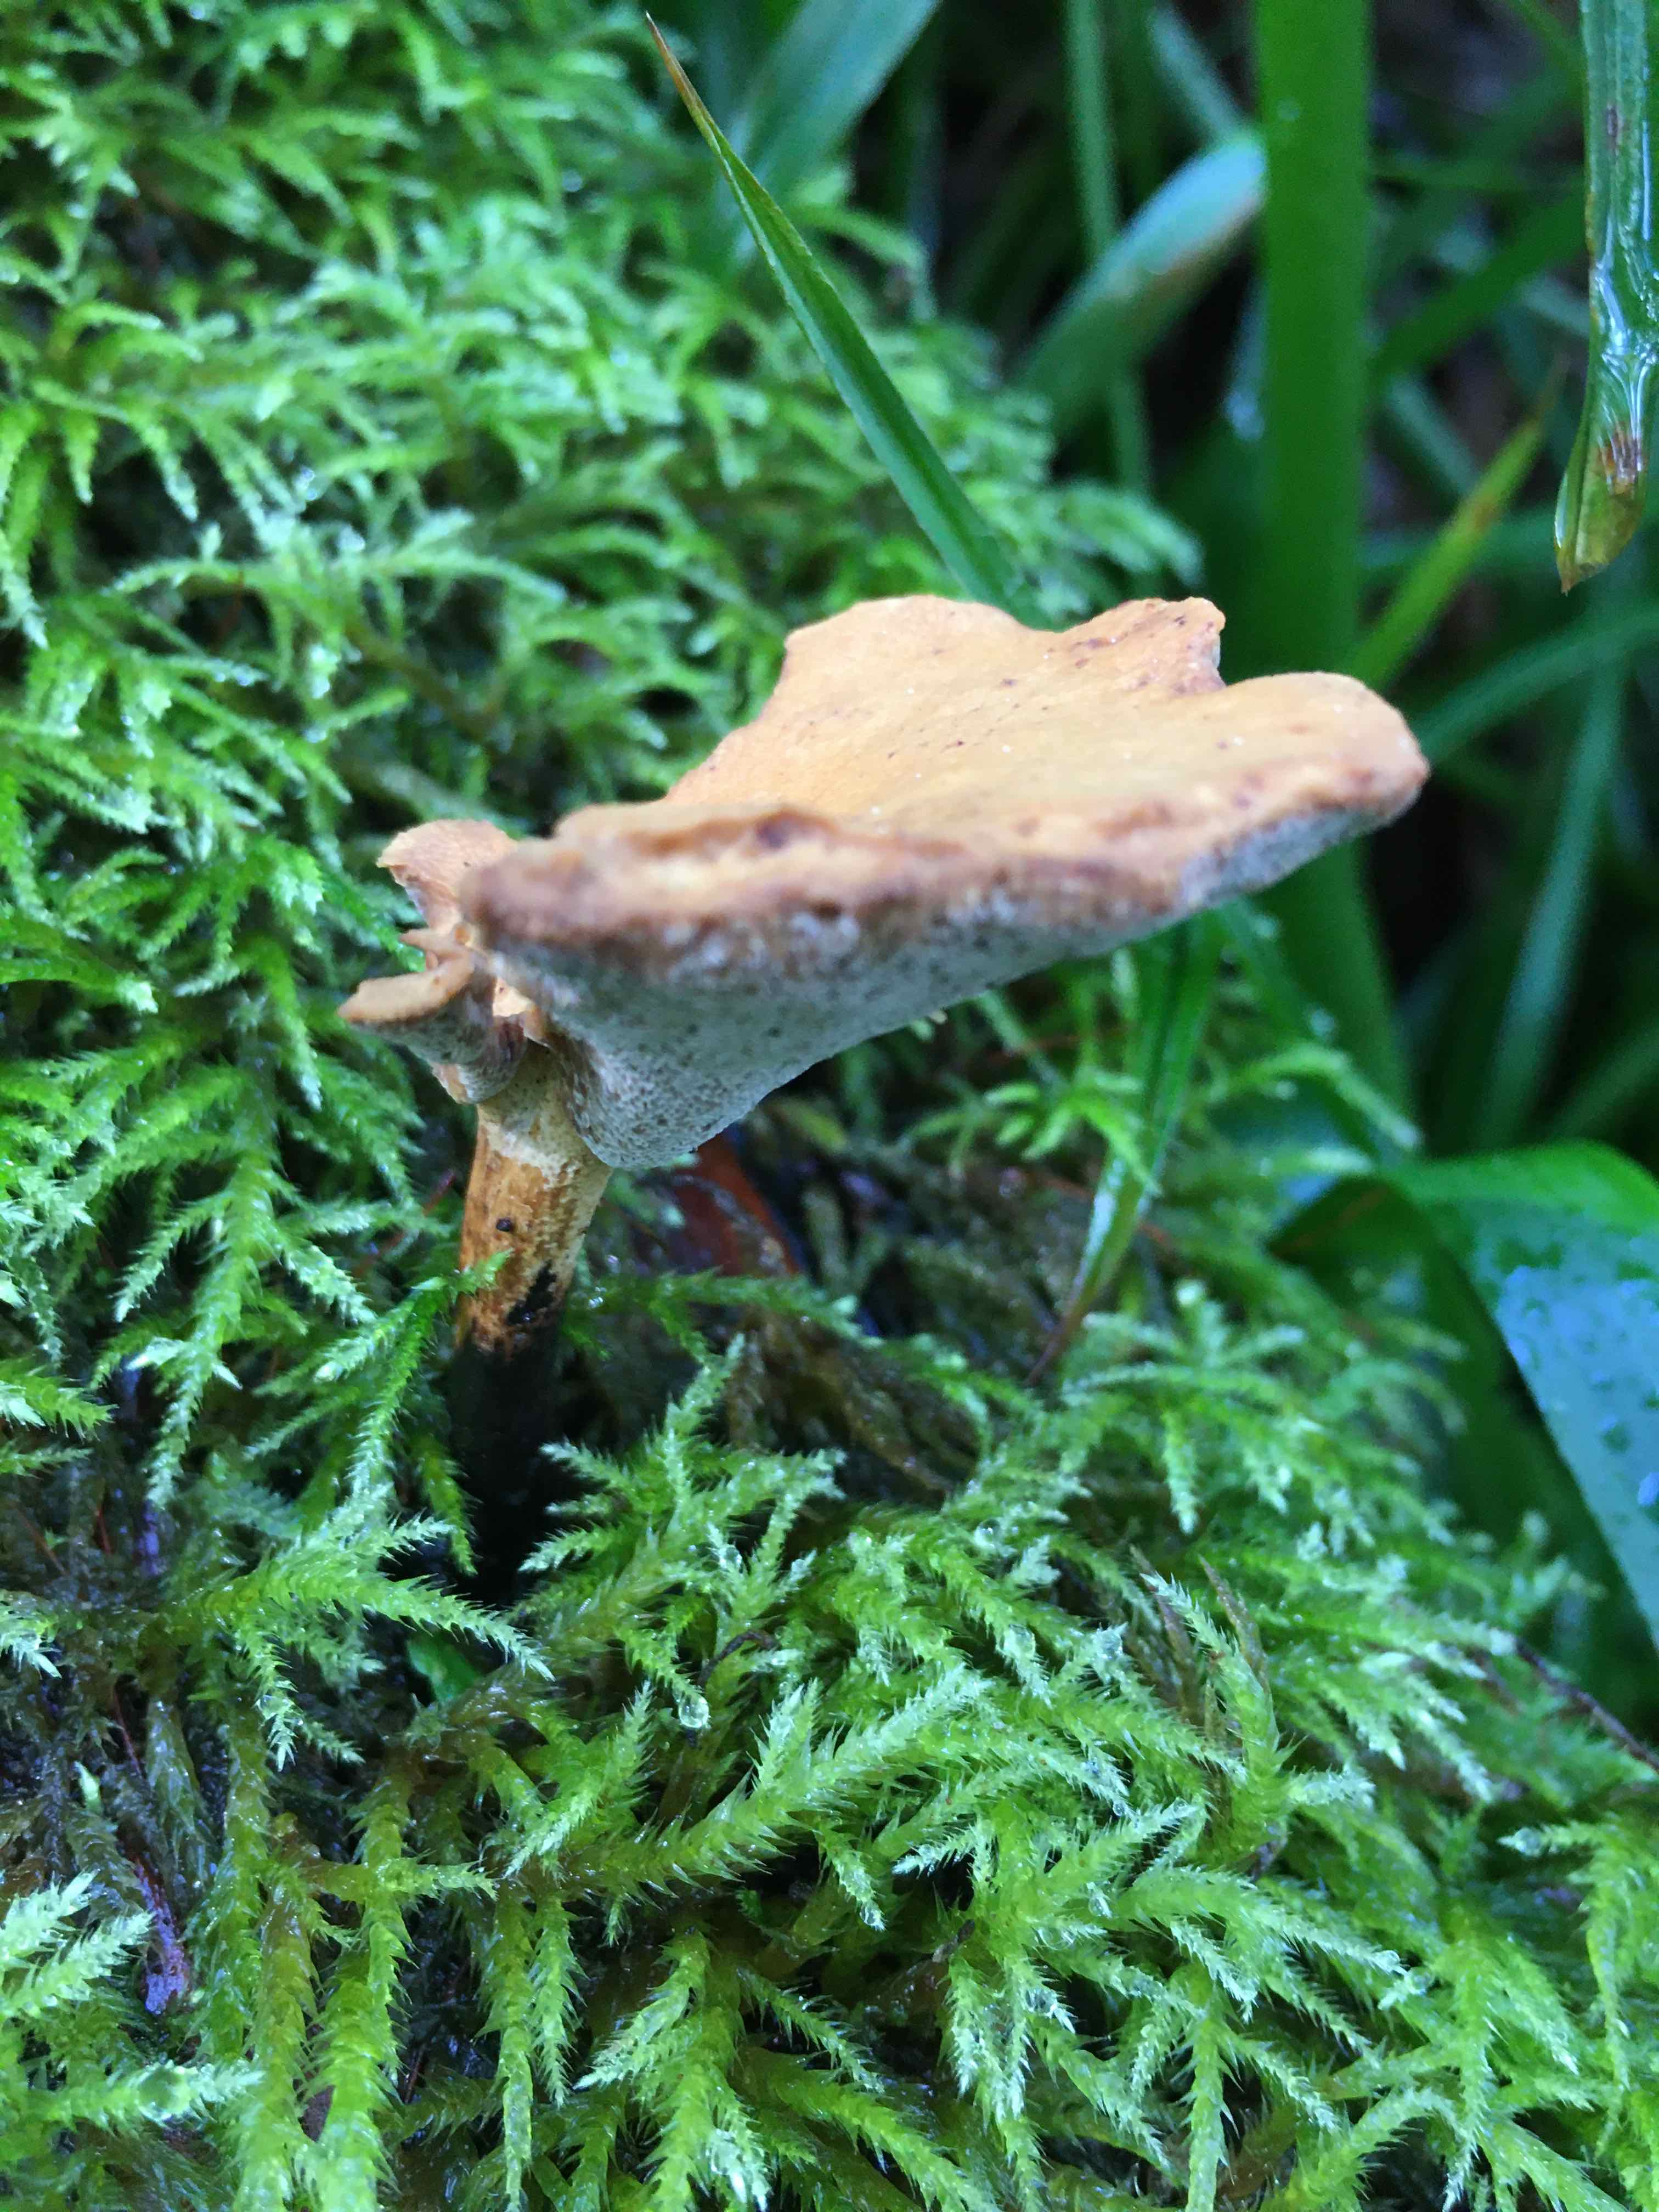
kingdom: Fungi
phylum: Basidiomycota
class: Agaricomycetes
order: Polyporales
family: Polyporaceae
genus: Cerioporus
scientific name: Cerioporus varius
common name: foranderlig stilkporesvamp
